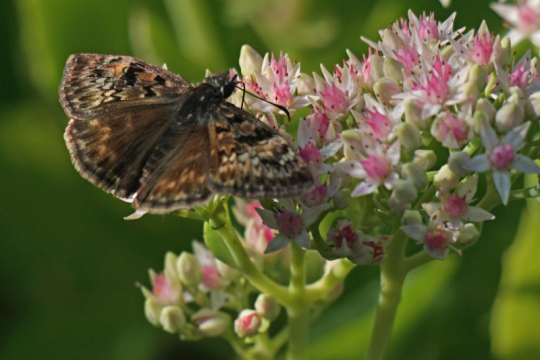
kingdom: Animalia
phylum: Arthropoda
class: Insecta
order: Lepidoptera
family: Hesperiidae
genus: Gesta
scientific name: Gesta
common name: Horace's Duskywing
